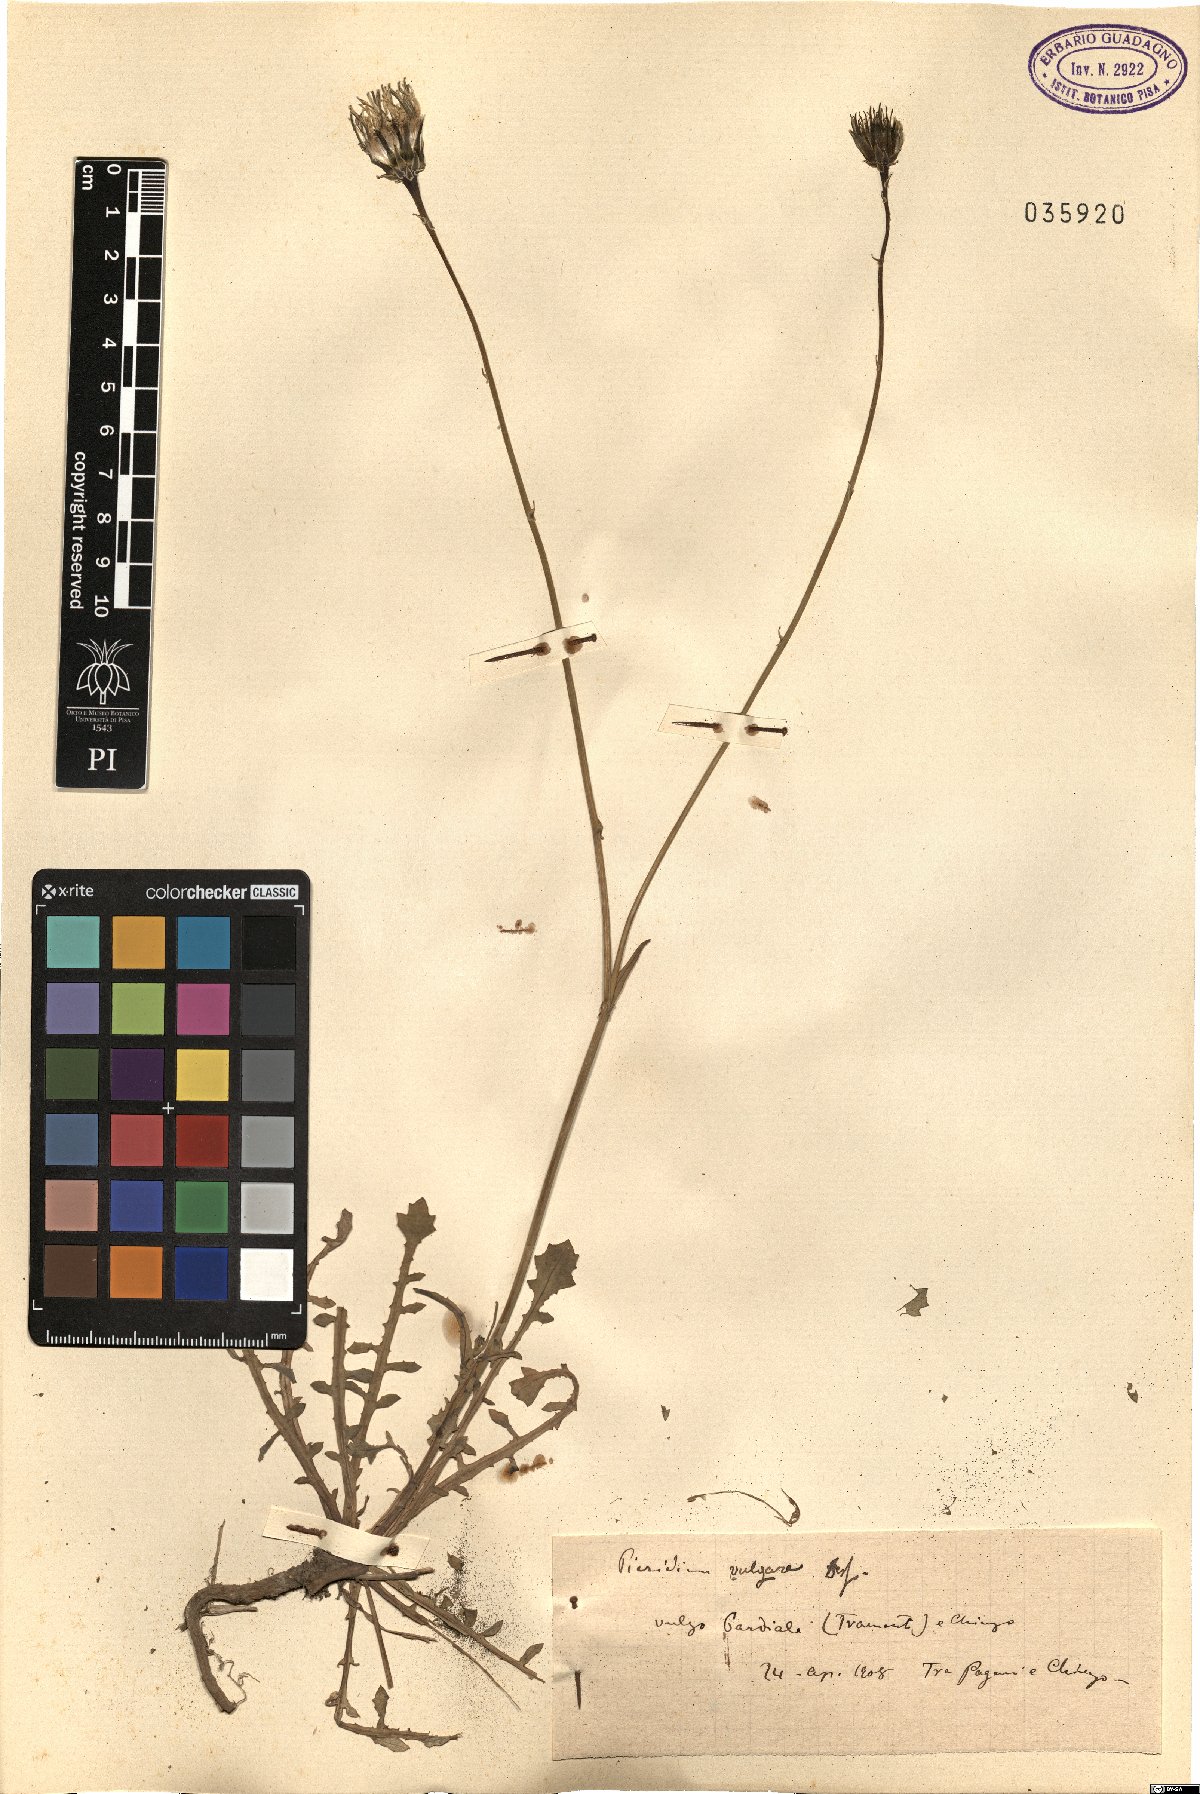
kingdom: Plantae
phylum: Tracheophyta
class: Magnoliopsida
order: Asterales
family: Asteraceae
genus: Reichardia
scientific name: Reichardia picroides
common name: Common brighteyes
